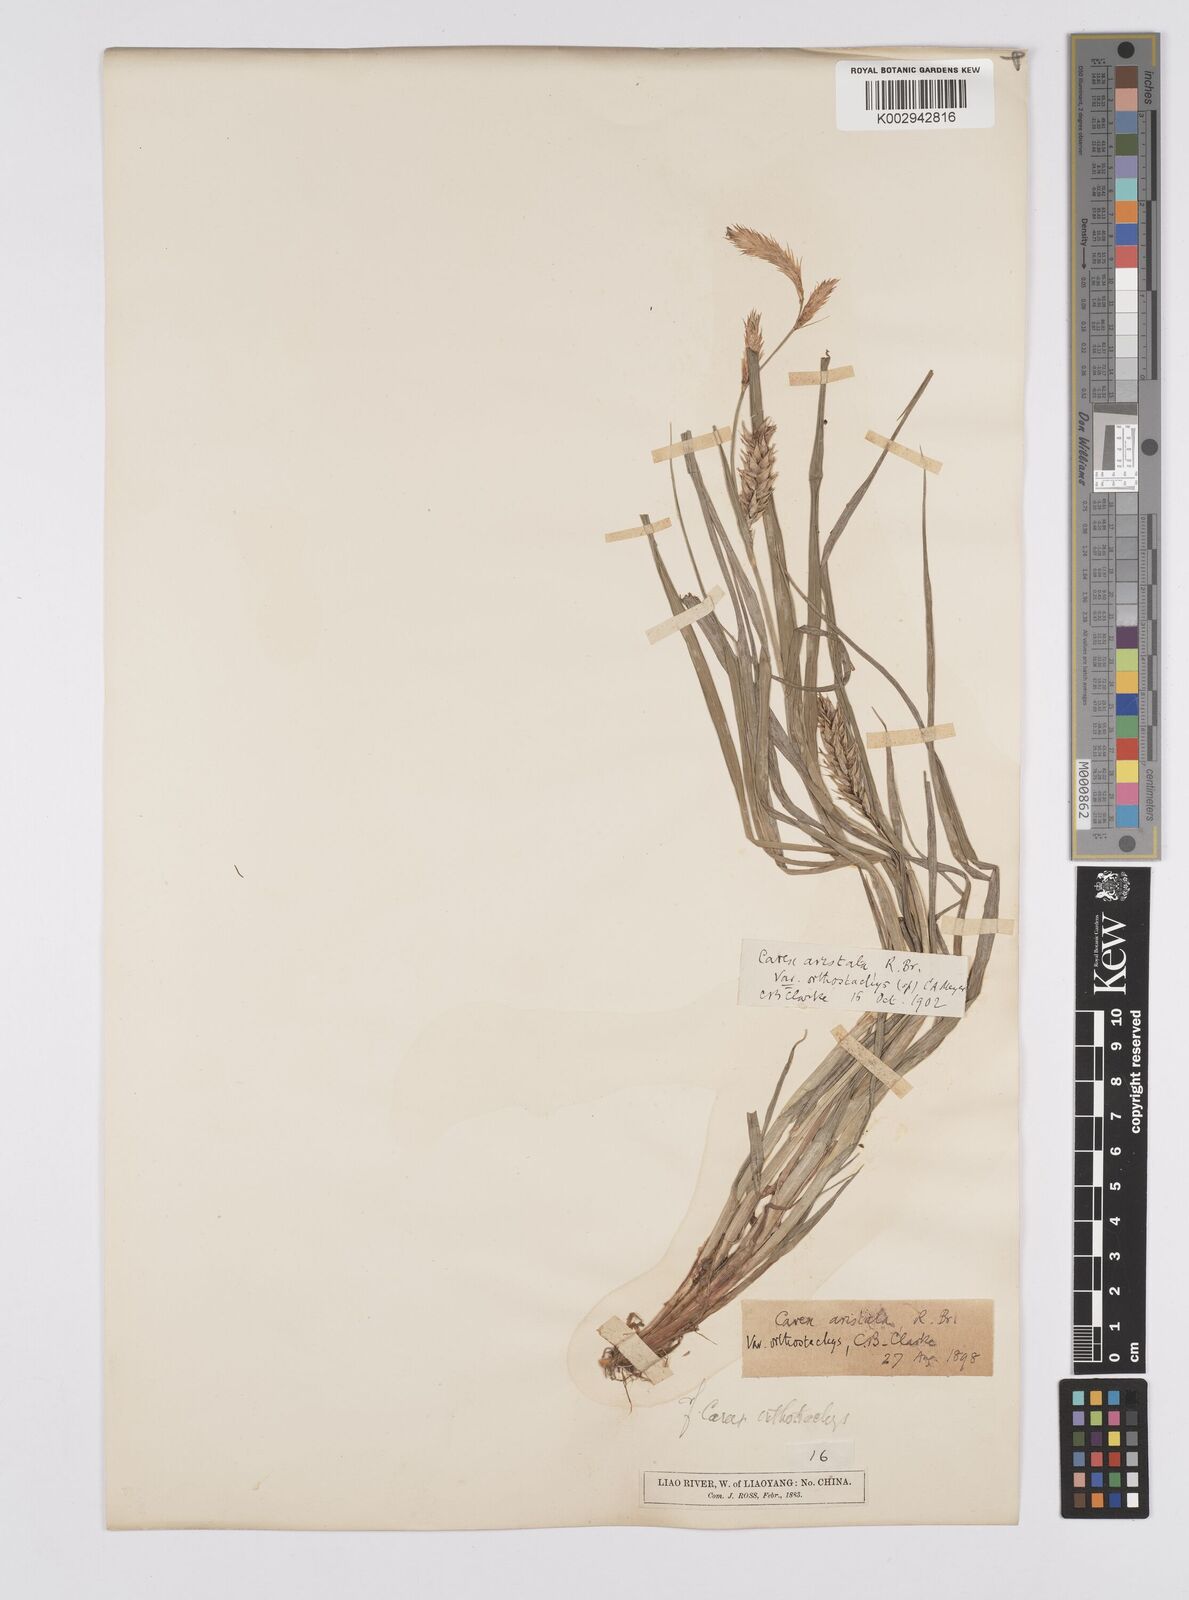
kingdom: Plantae
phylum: Tracheophyta
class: Liliopsida
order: Poales
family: Cyperaceae
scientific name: Cyperaceae
